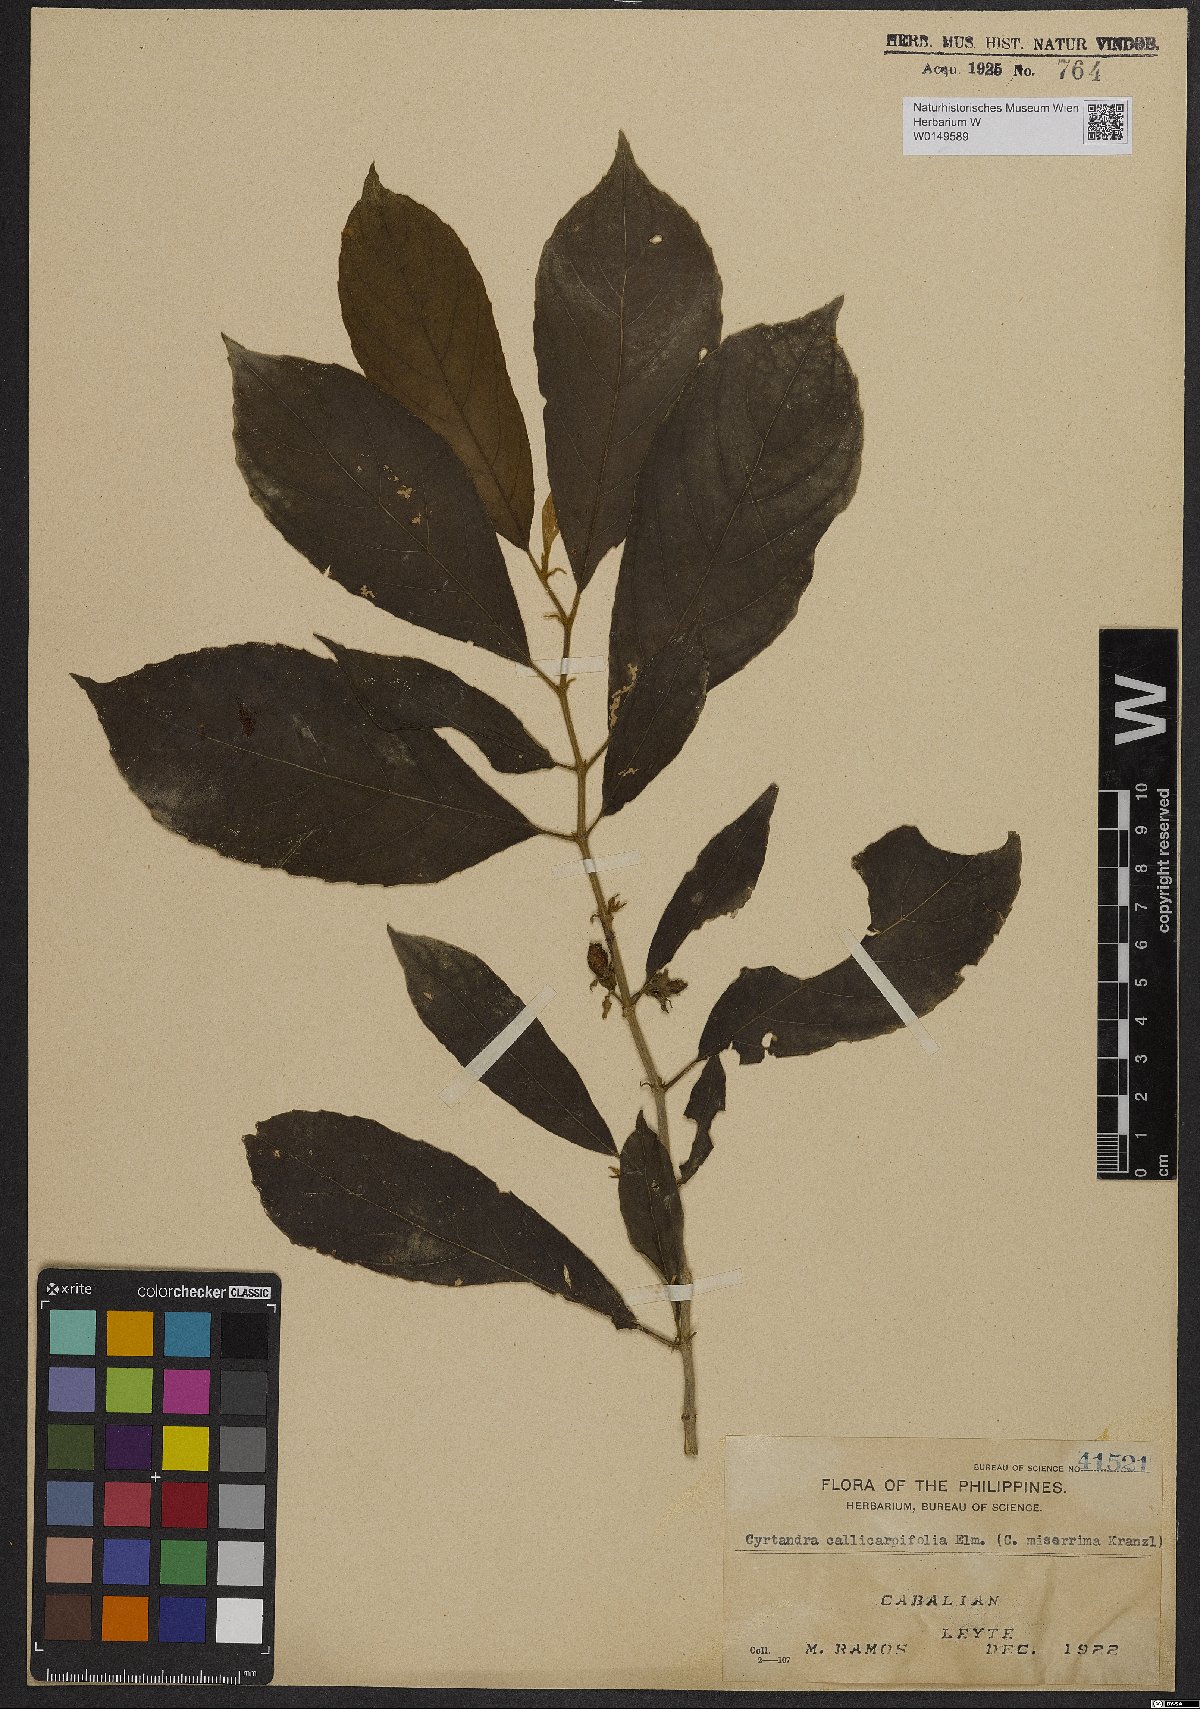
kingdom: Plantae
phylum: Tracheophyta
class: Magnoliopsida
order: Lamiales
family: Gesneriaceae
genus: Cyrtandra
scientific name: Cyrtandra callicarpifolia
